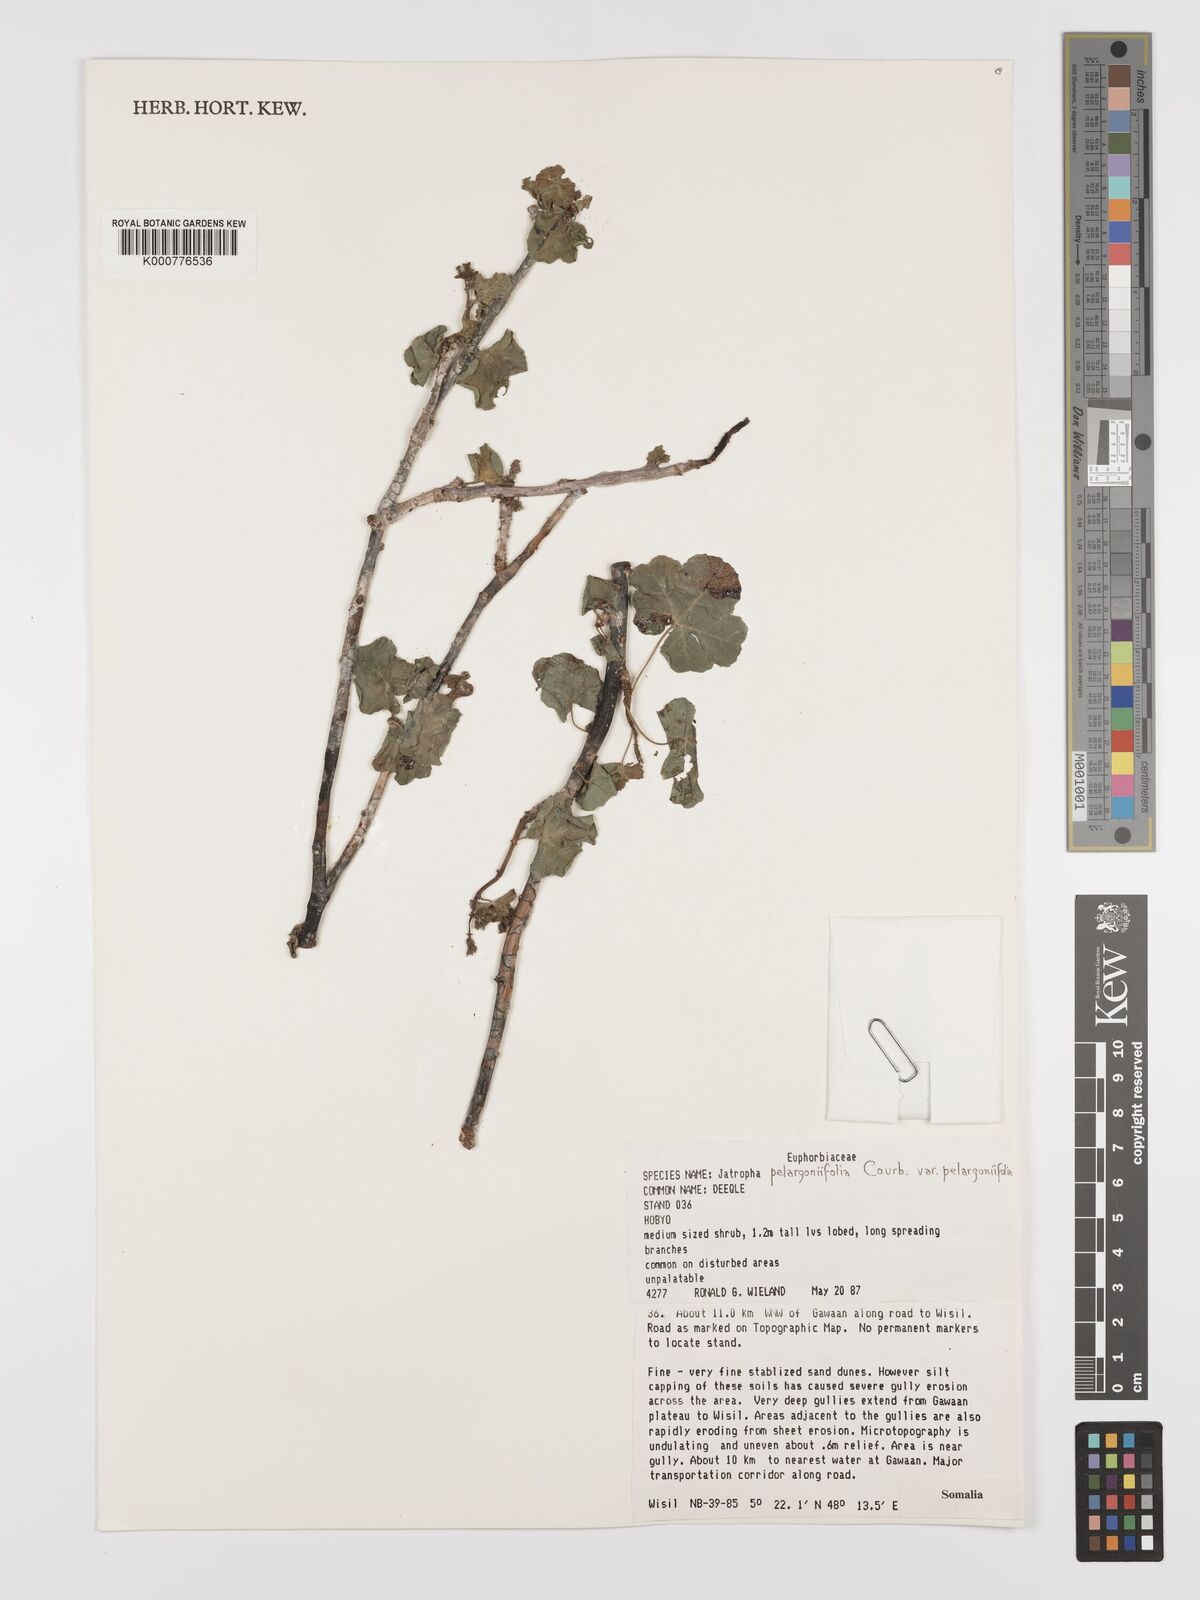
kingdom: Plantae
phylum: Tracheophyta
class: Magnoliopsida
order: Malpighiales
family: Euphorbiaceae
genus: Jatropha
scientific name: Jatropha pelargoniifolia
